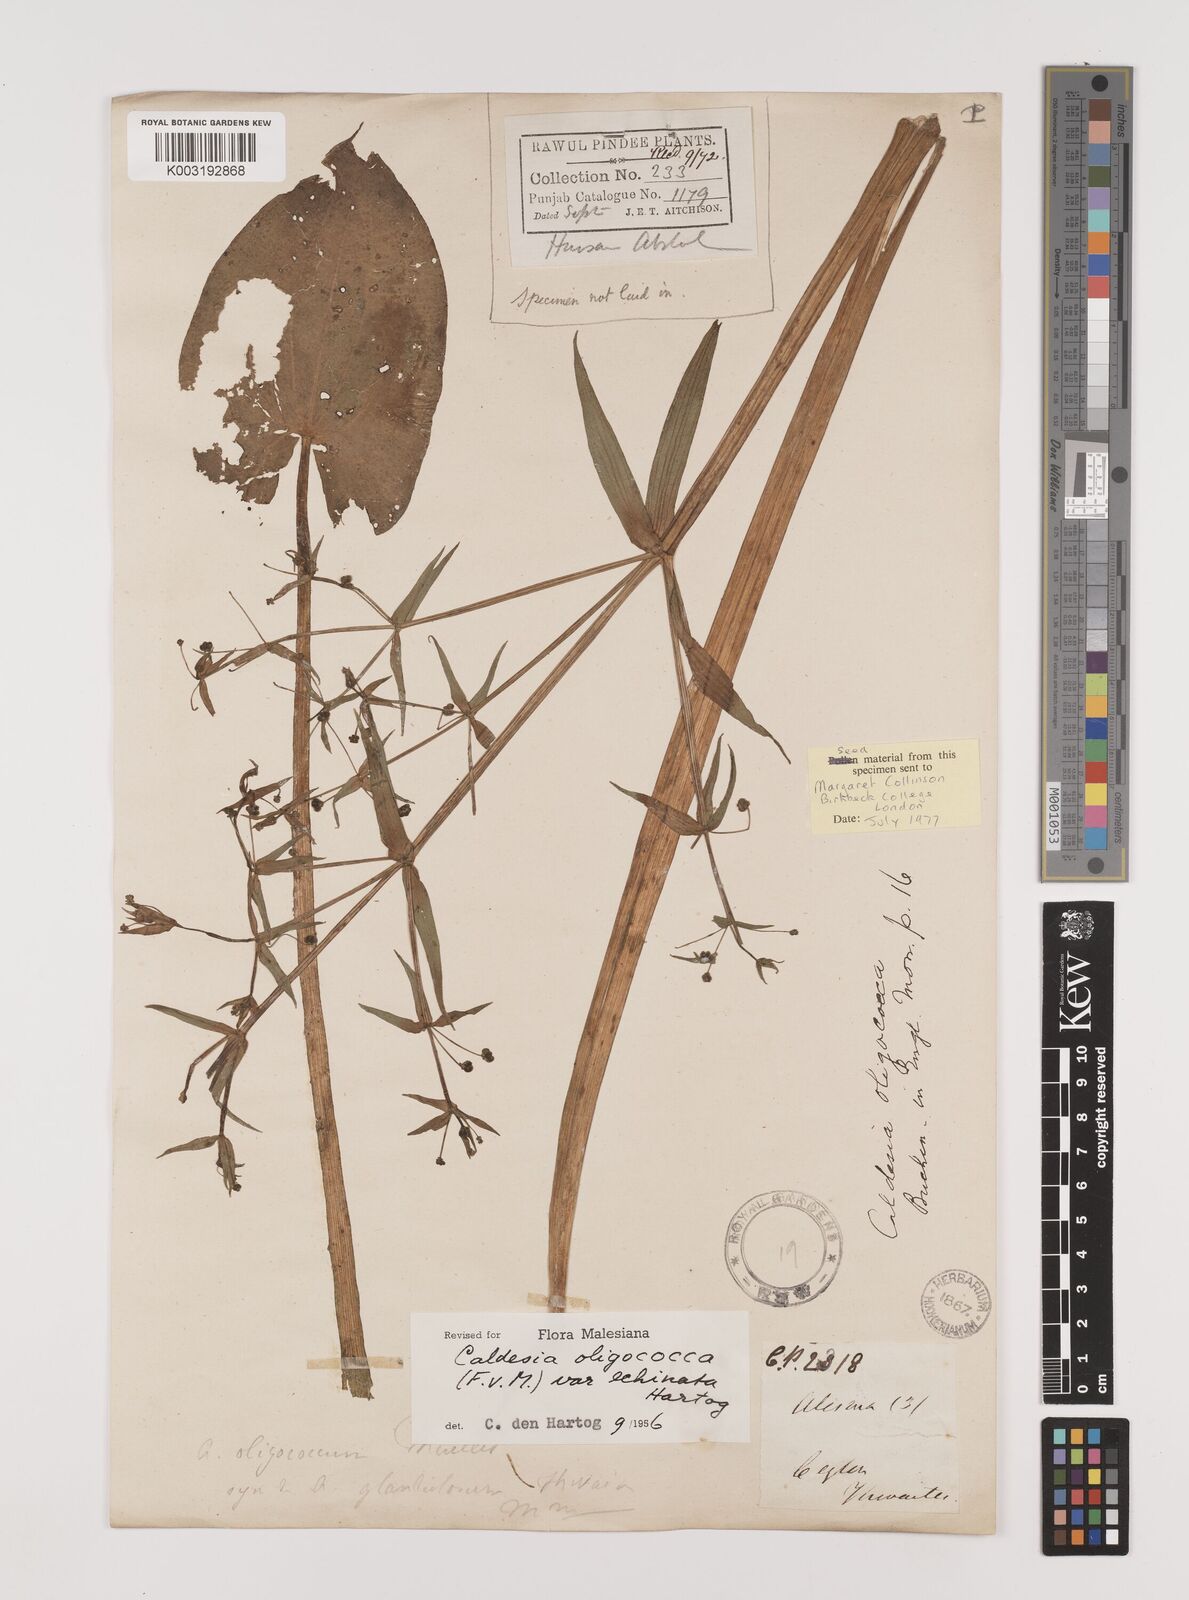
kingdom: Plantae
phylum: Tracheophyta
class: Liliopsida
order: Alismatales
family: Alismataceae
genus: Albidella
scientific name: Albidella glandulosa
